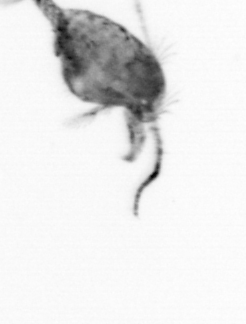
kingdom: Animalia
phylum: Arthropoda
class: Copepoda
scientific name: Copepoda
